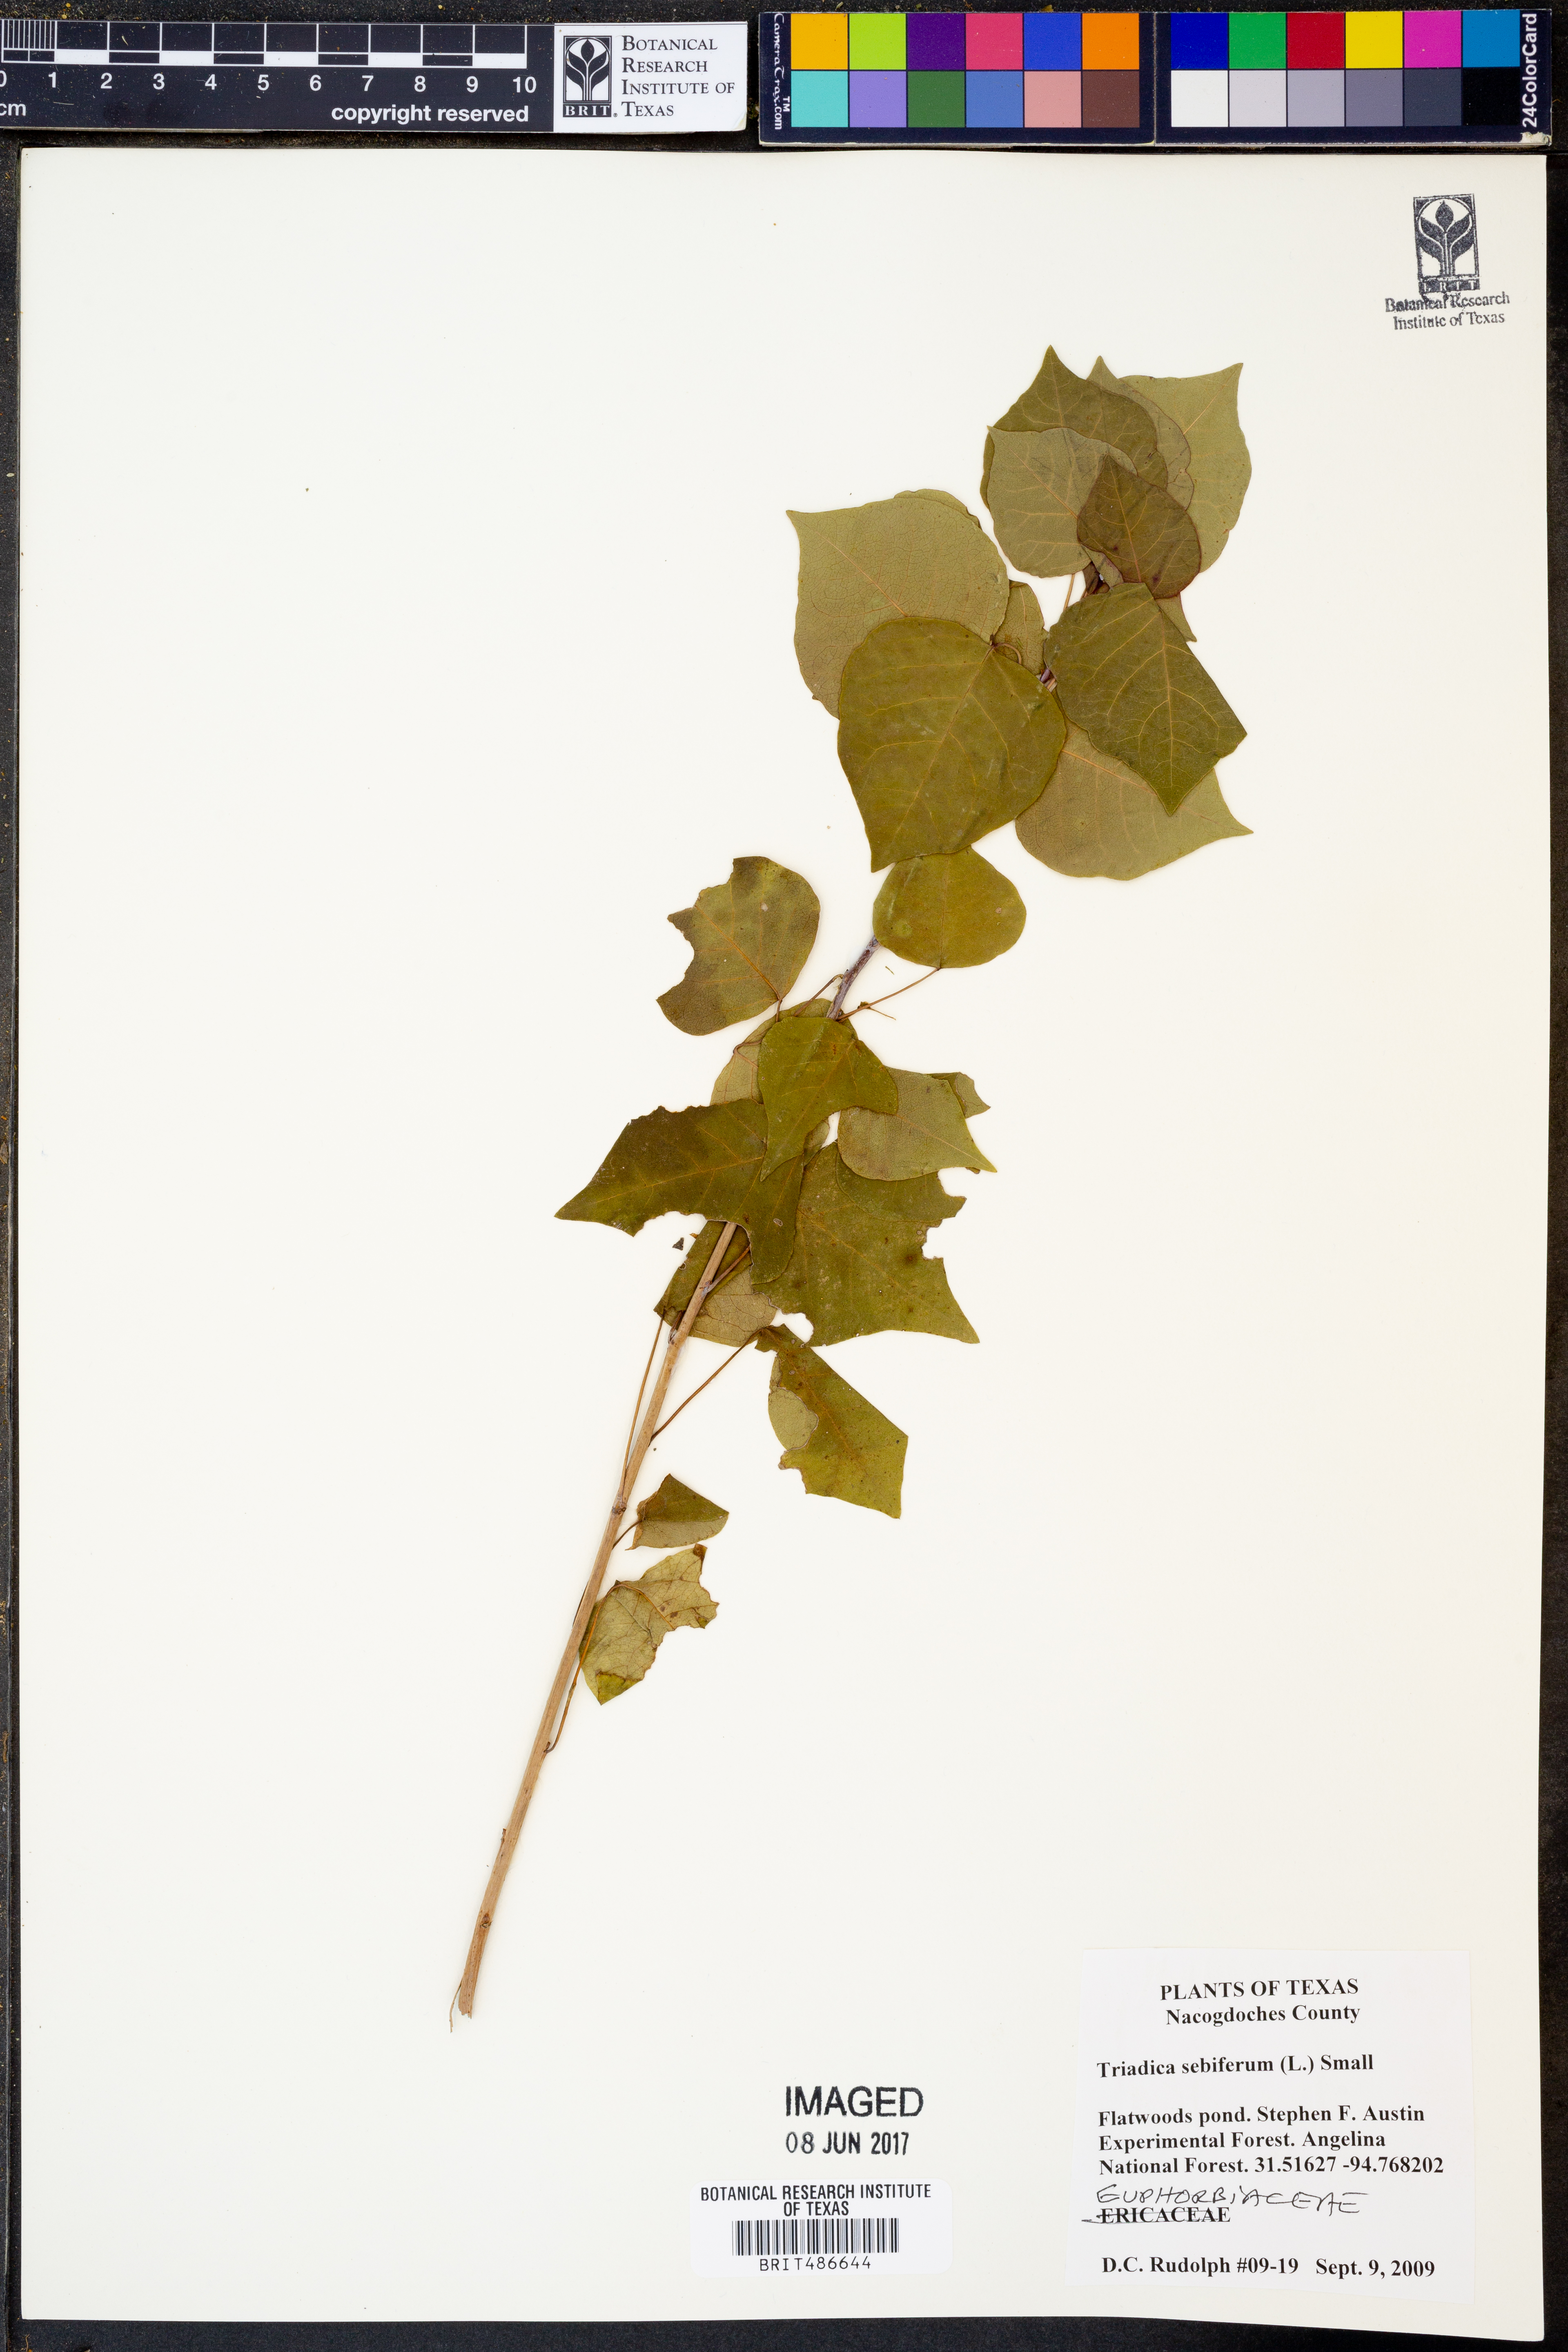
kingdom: Plantae
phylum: Tracheophyta
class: Magnoliopsida
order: Malpighiales
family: Euphorbiaceae
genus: Triadica
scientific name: Triadica sebifera
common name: Chinese tallow
